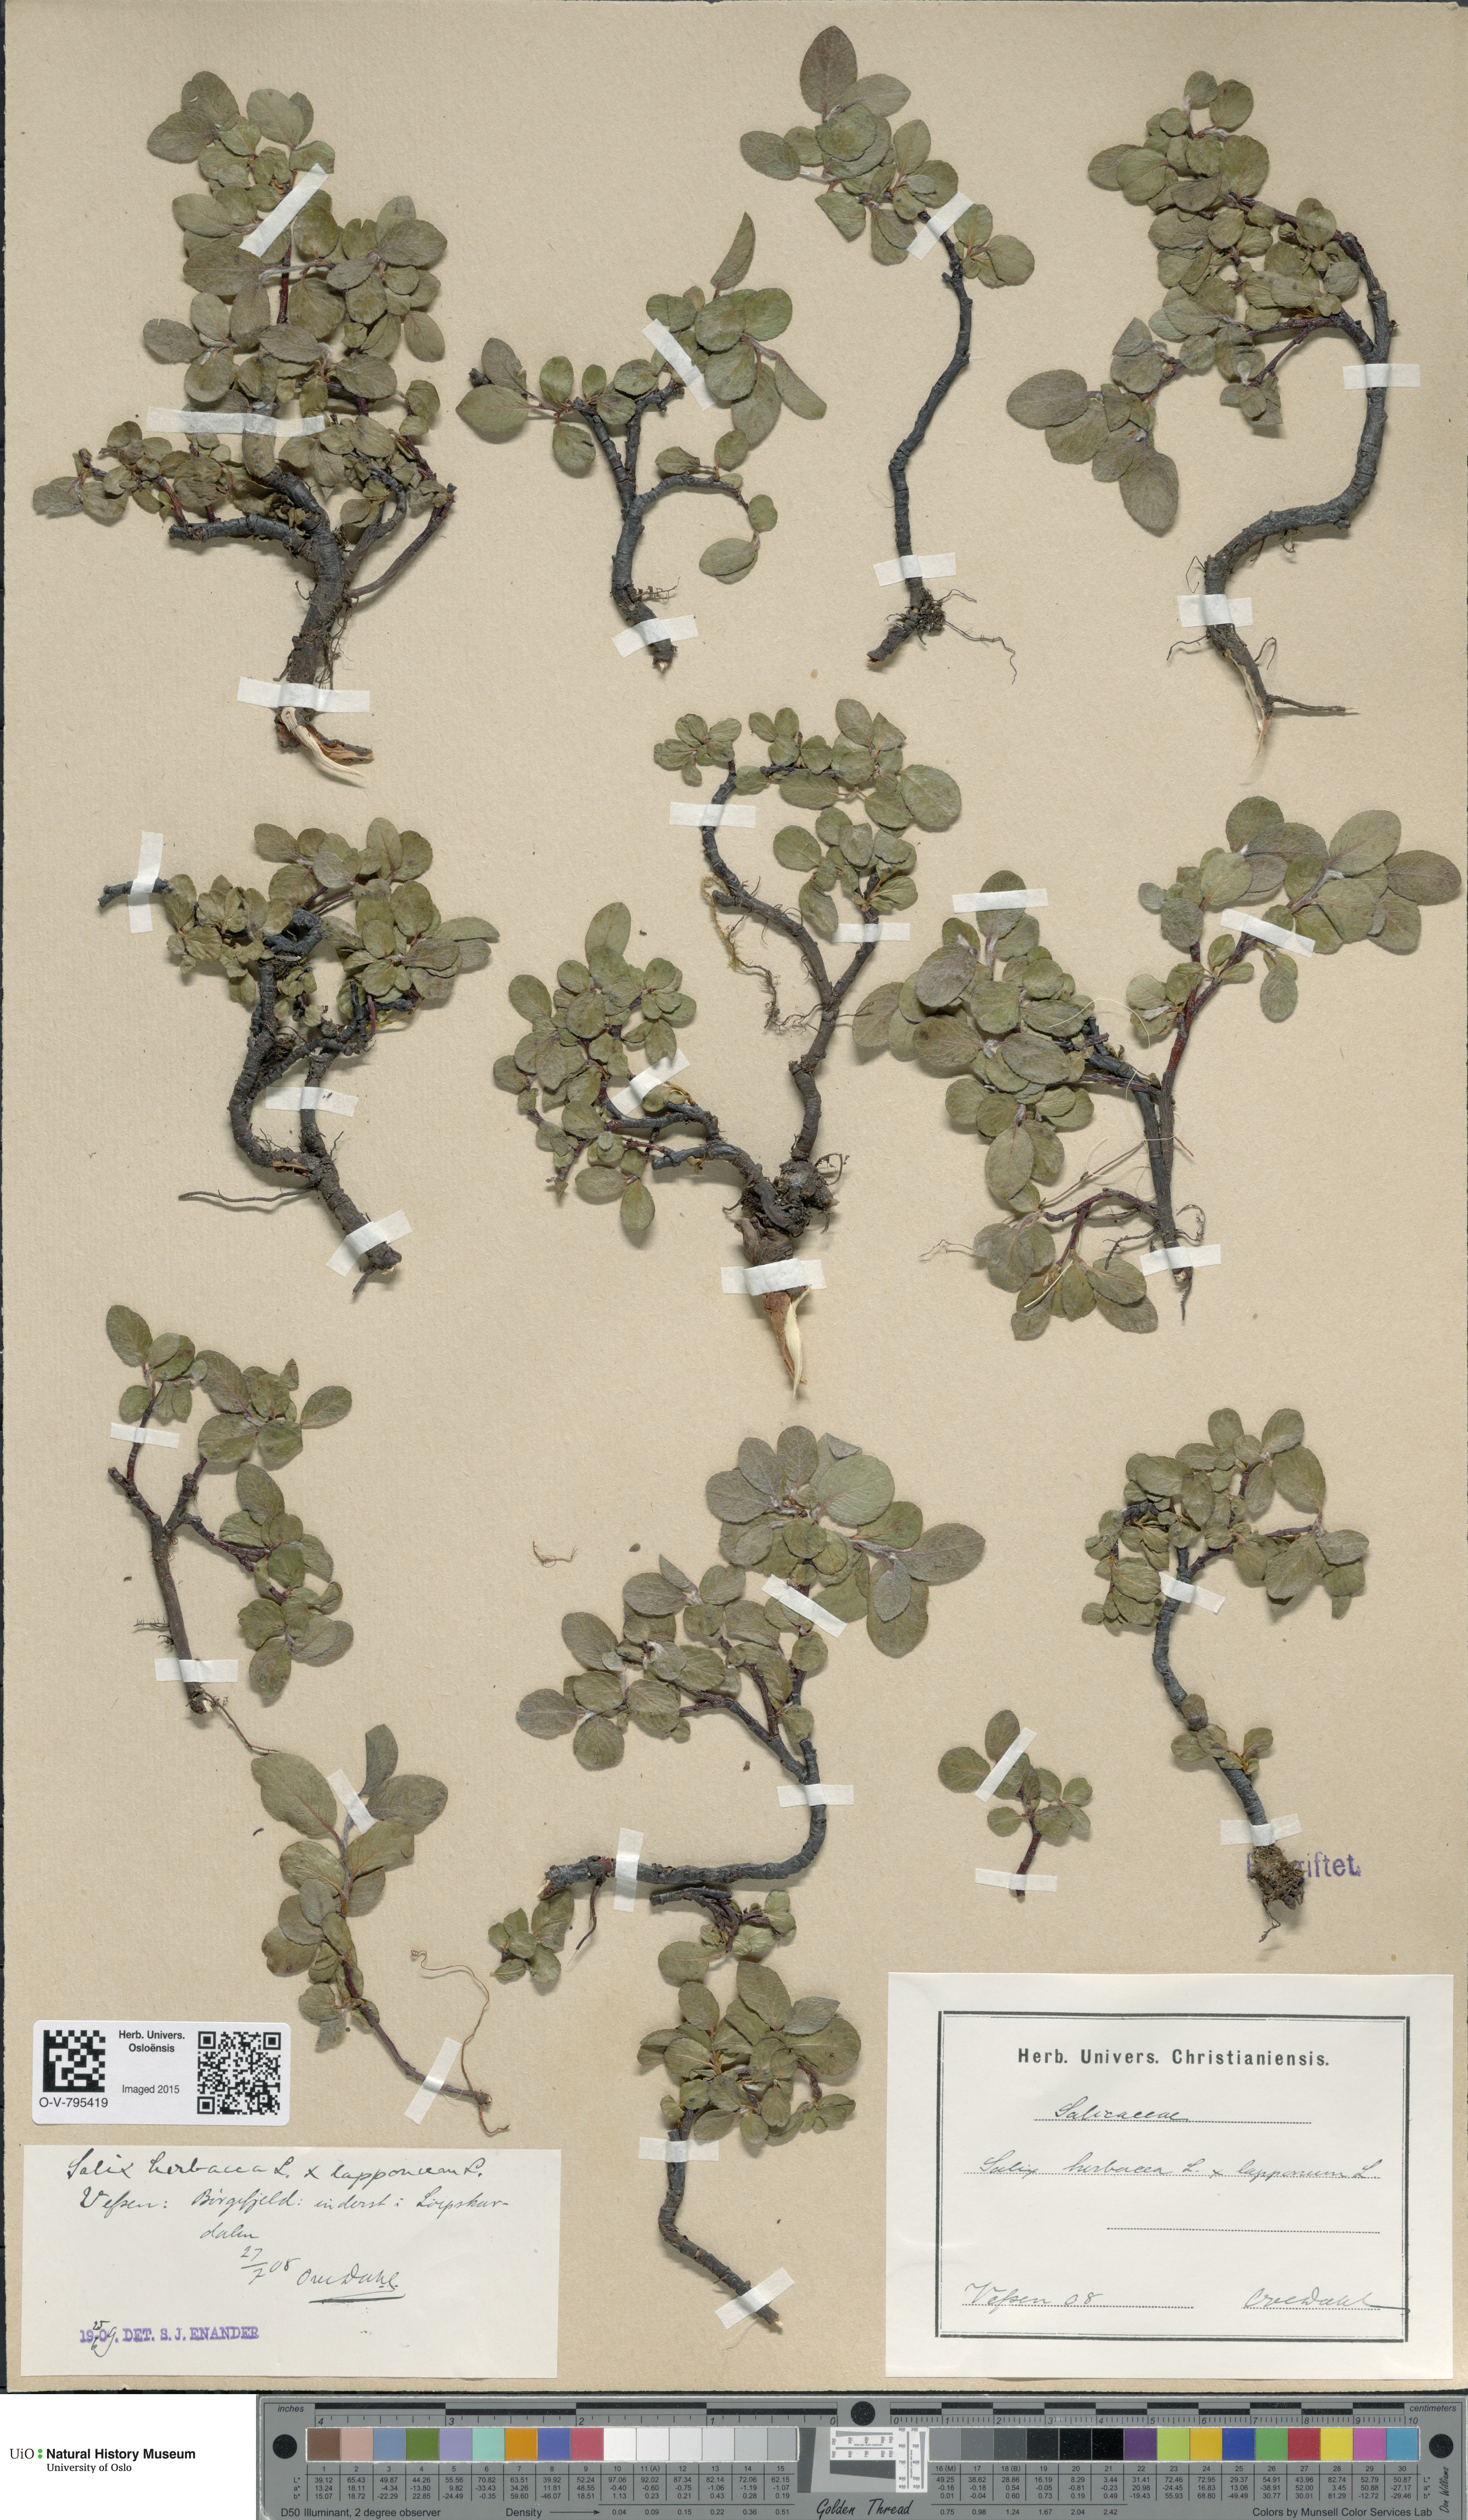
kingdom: Plantae
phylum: Tracheophyta
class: Magnoliopsida
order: Malpighiales
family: Salicaceae
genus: Salix
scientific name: Salix
